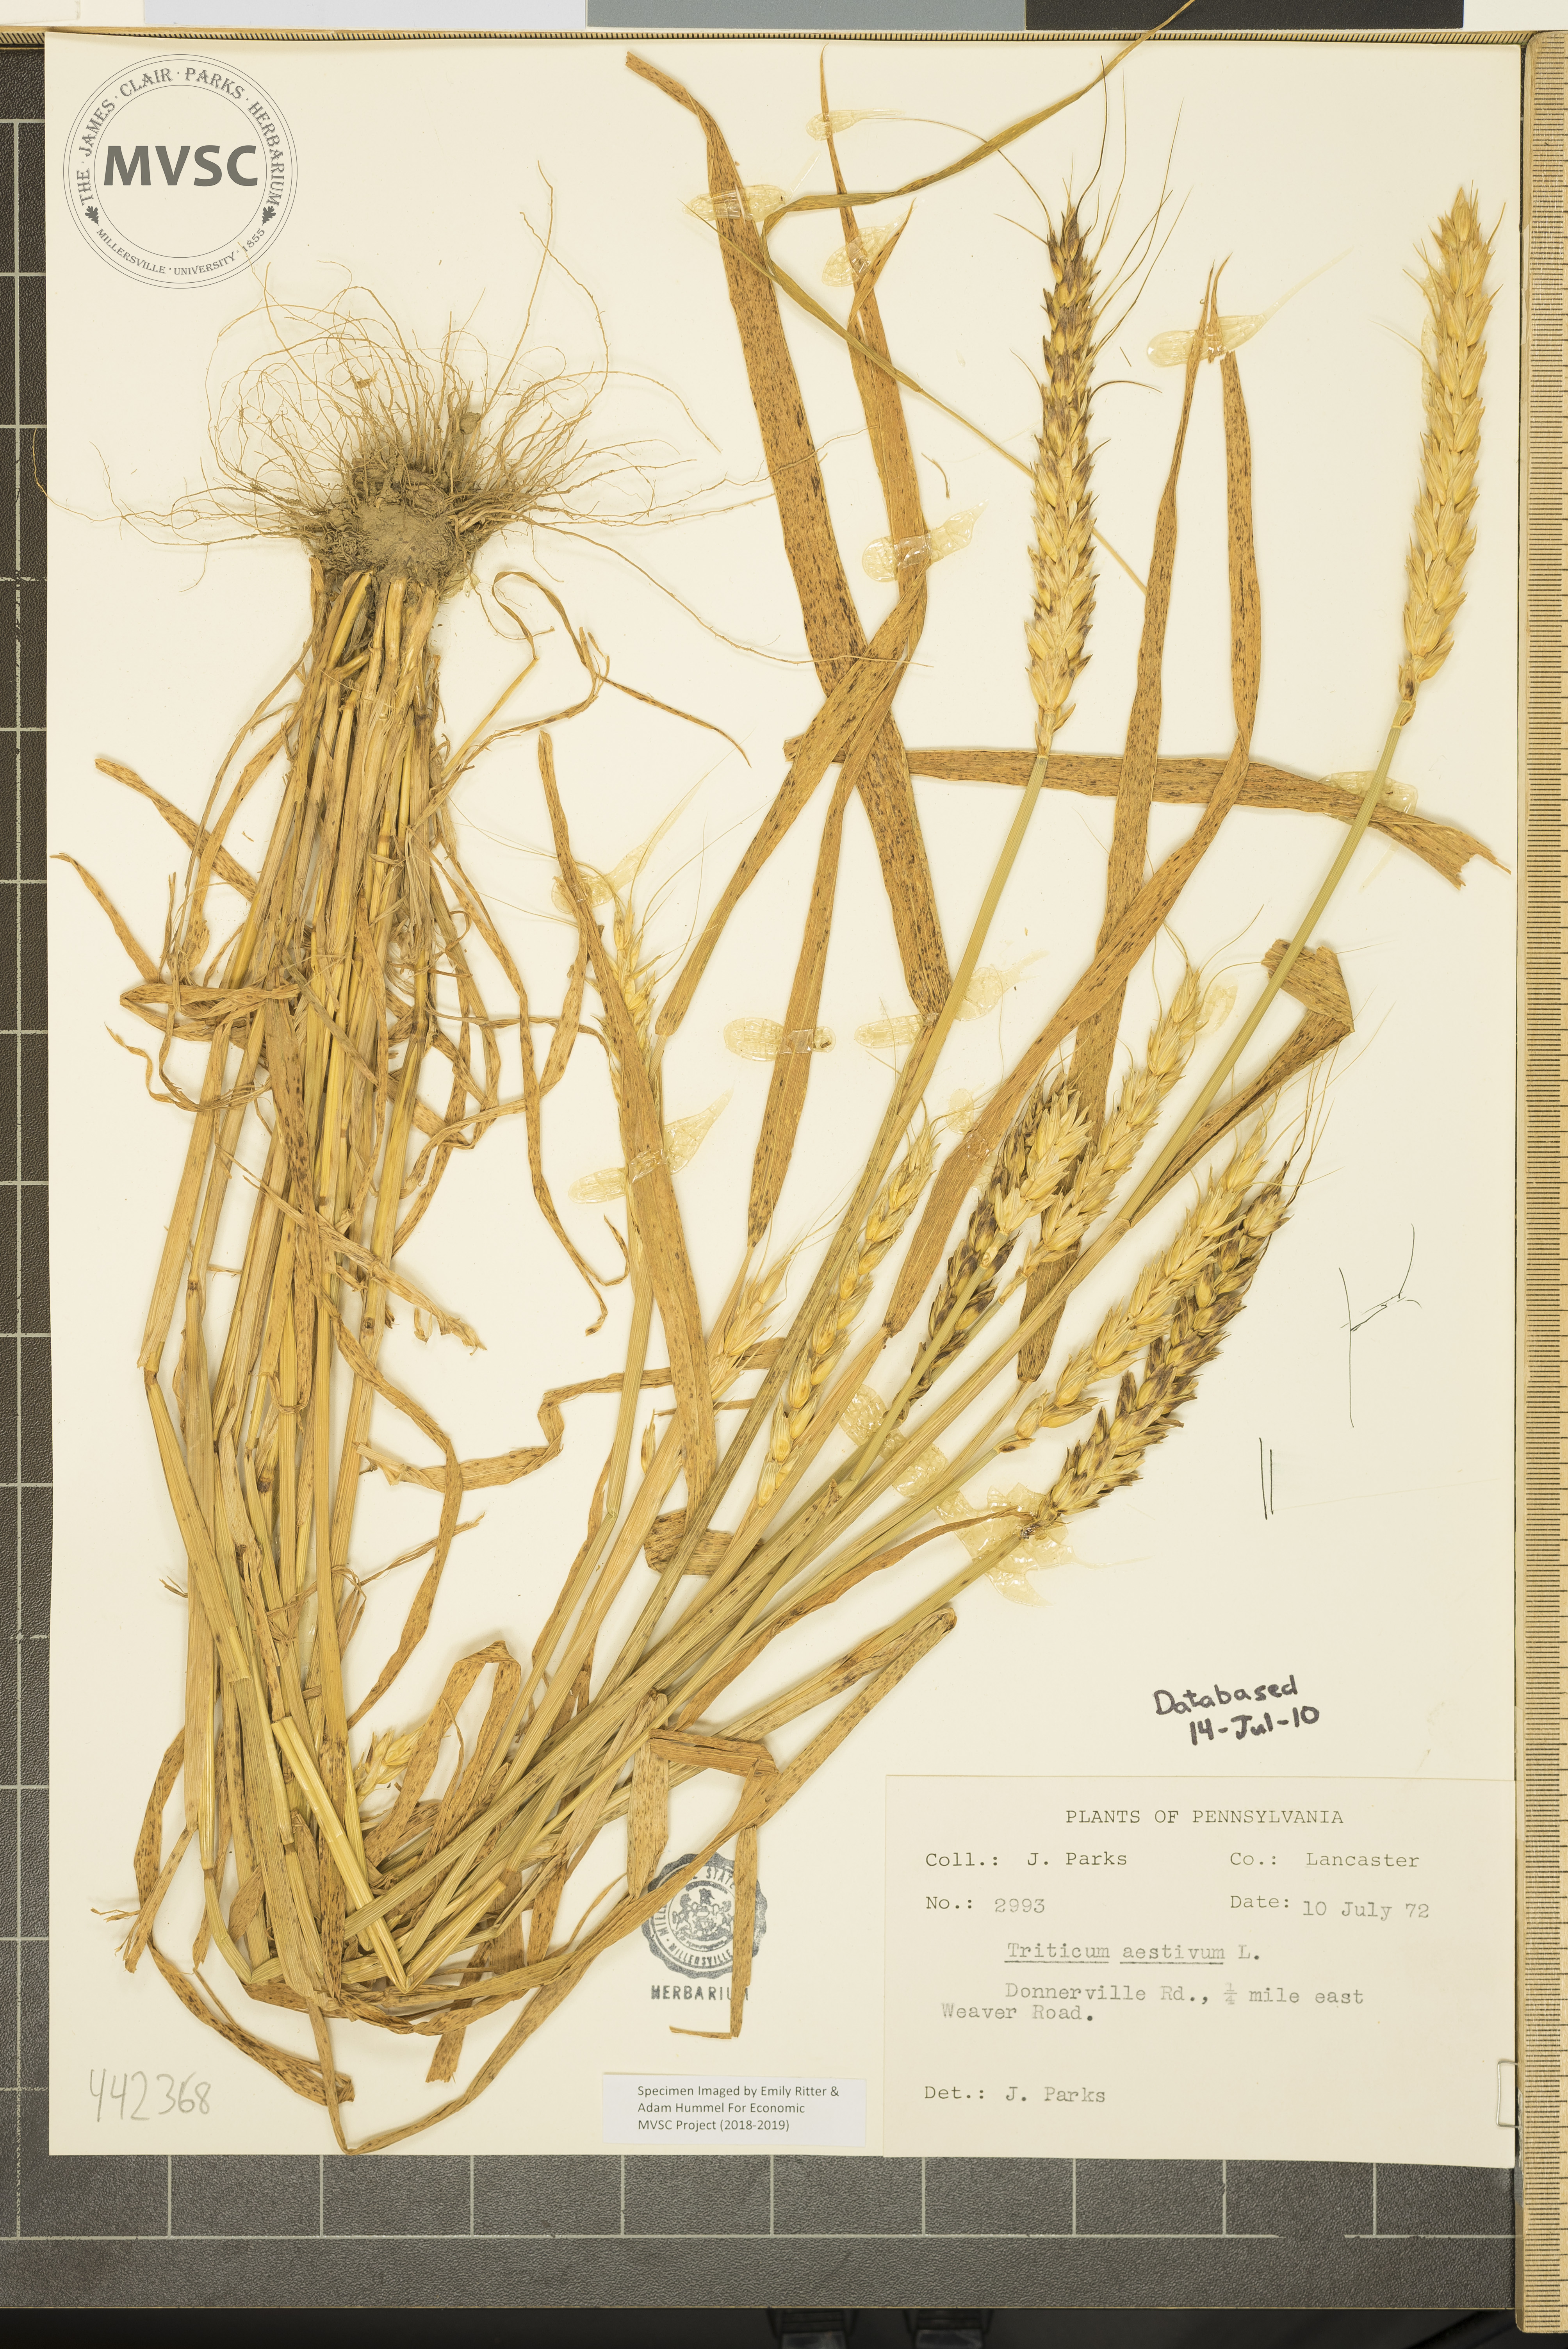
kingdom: Plantae
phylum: Tracheophyta
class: Liliopsida
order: Poales
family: Poaceae
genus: Triticum
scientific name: Triticum aestivum
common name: Common wheat
